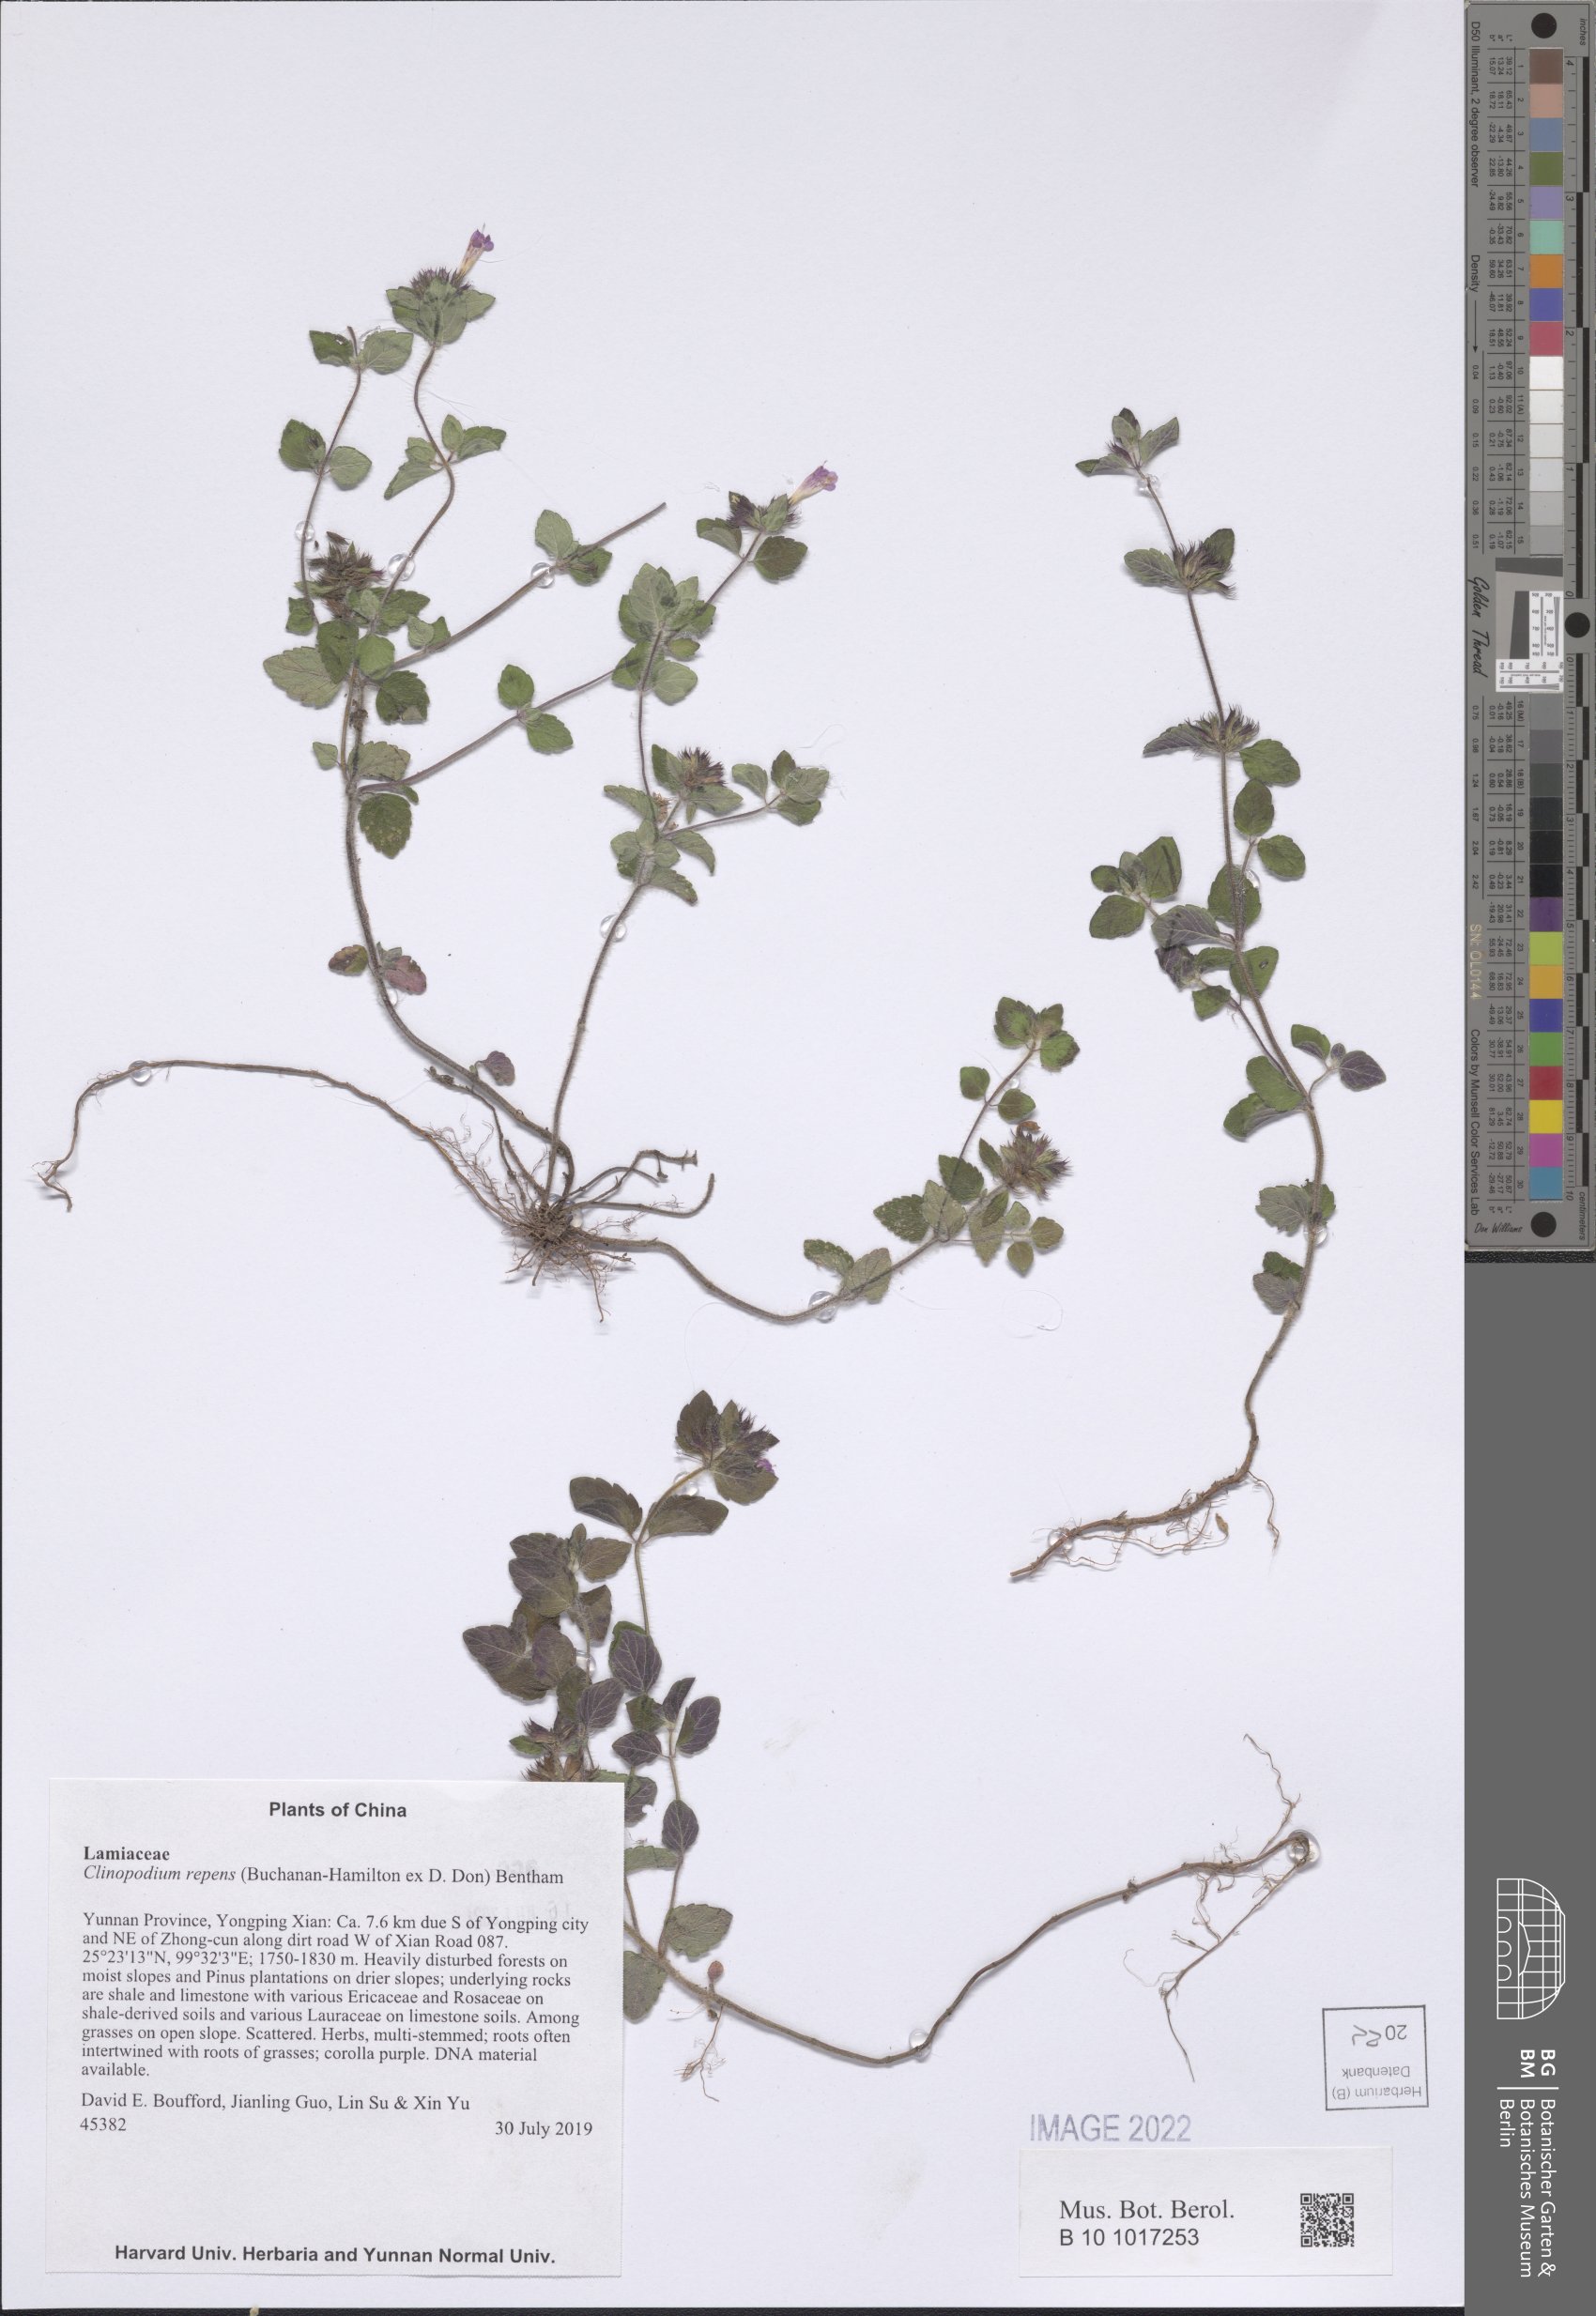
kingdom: Plantae
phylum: Tracheophyta
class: Magnoliopsida
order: Lamiales
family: Lamiaceae
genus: Clinopodium
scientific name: Clinopodium javanicum
